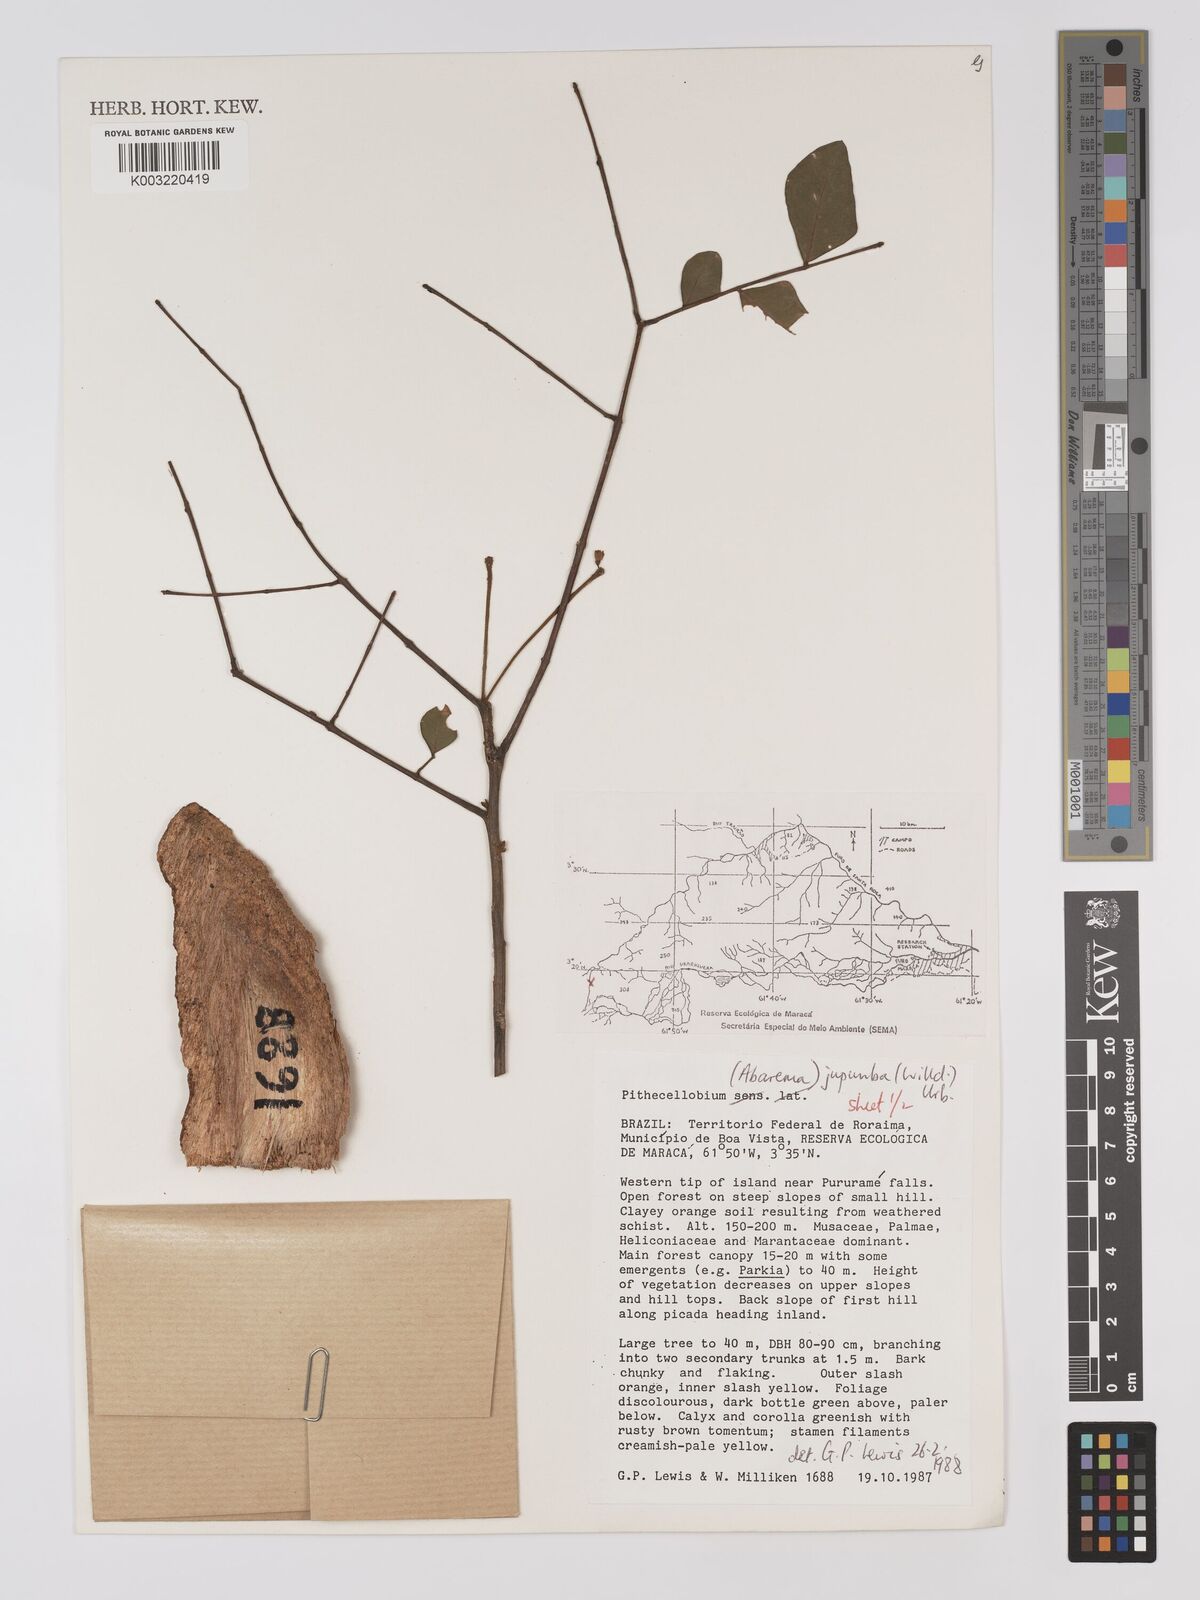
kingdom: Plantae
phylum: Tracheophyta
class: Magnoliopsida
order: Fabales
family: Fabaceae
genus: Jupunba
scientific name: Jupunba trapezifolia
